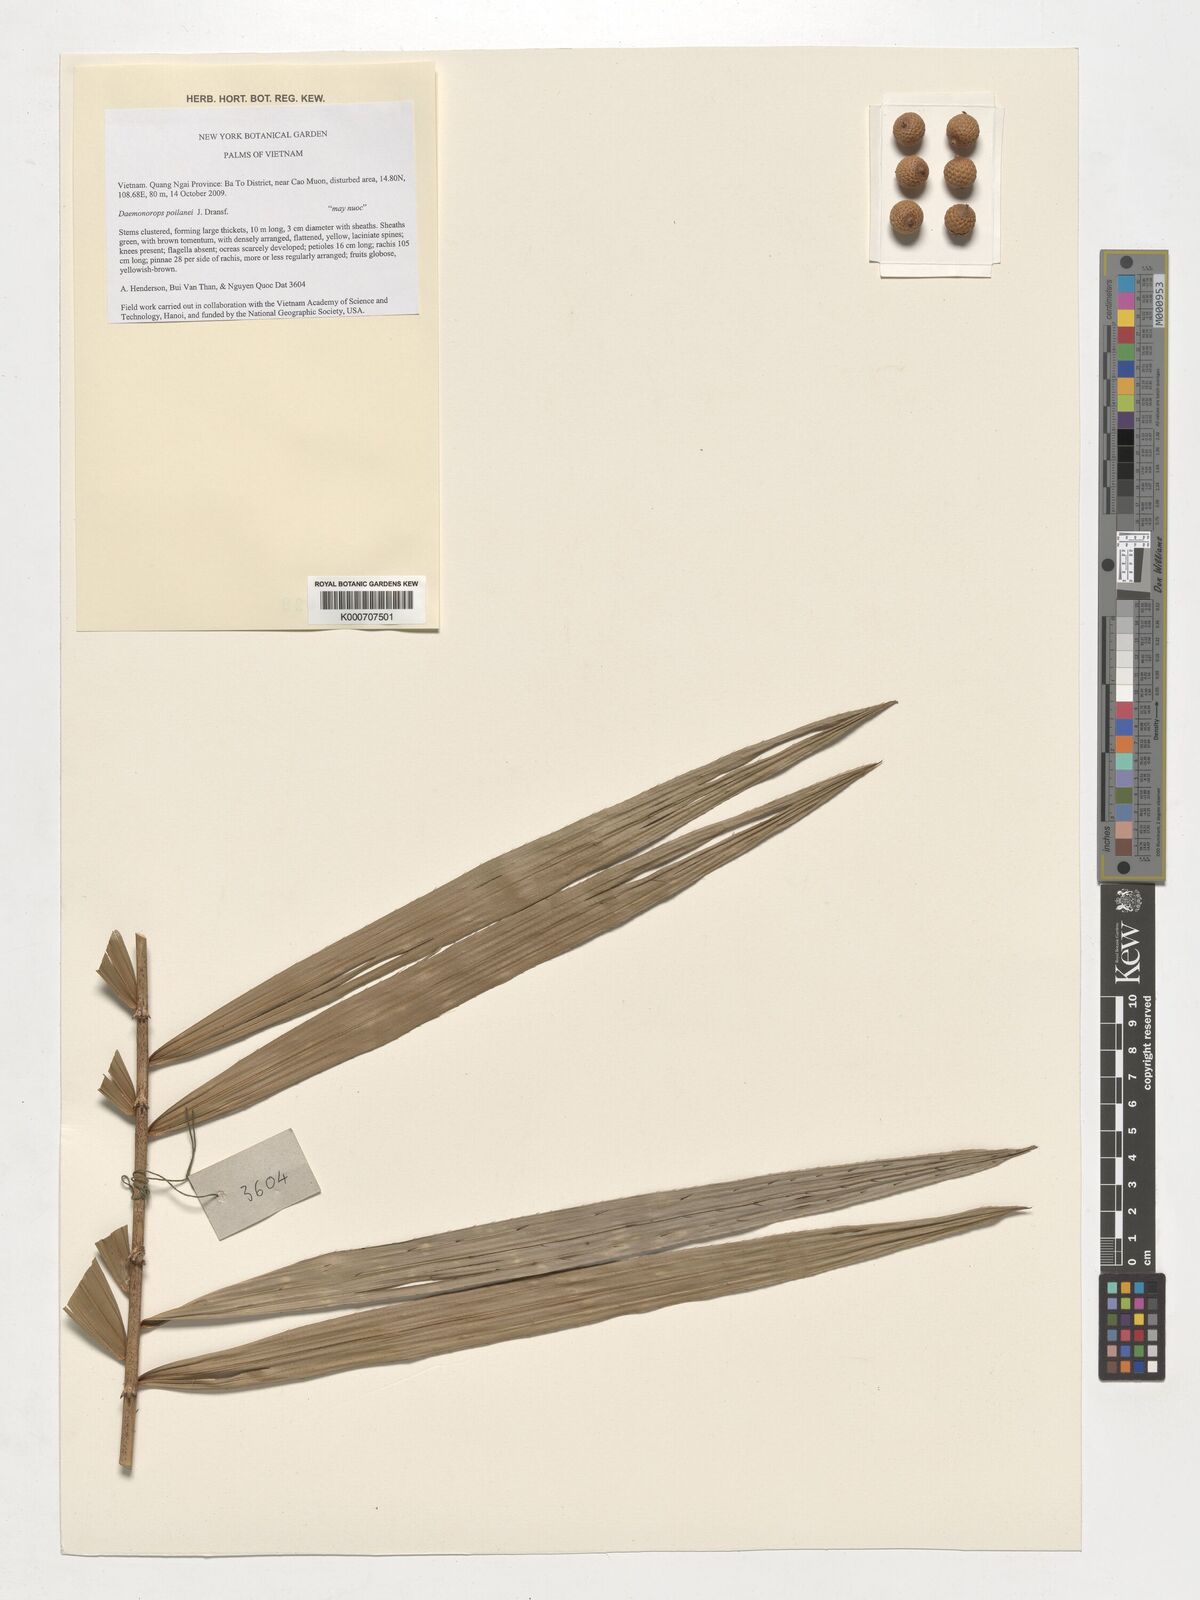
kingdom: Plantae
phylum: Tracheophyta
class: Liliopsida
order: Arecales
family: Arecaceae
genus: Calamus
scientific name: Calamus eugenei
